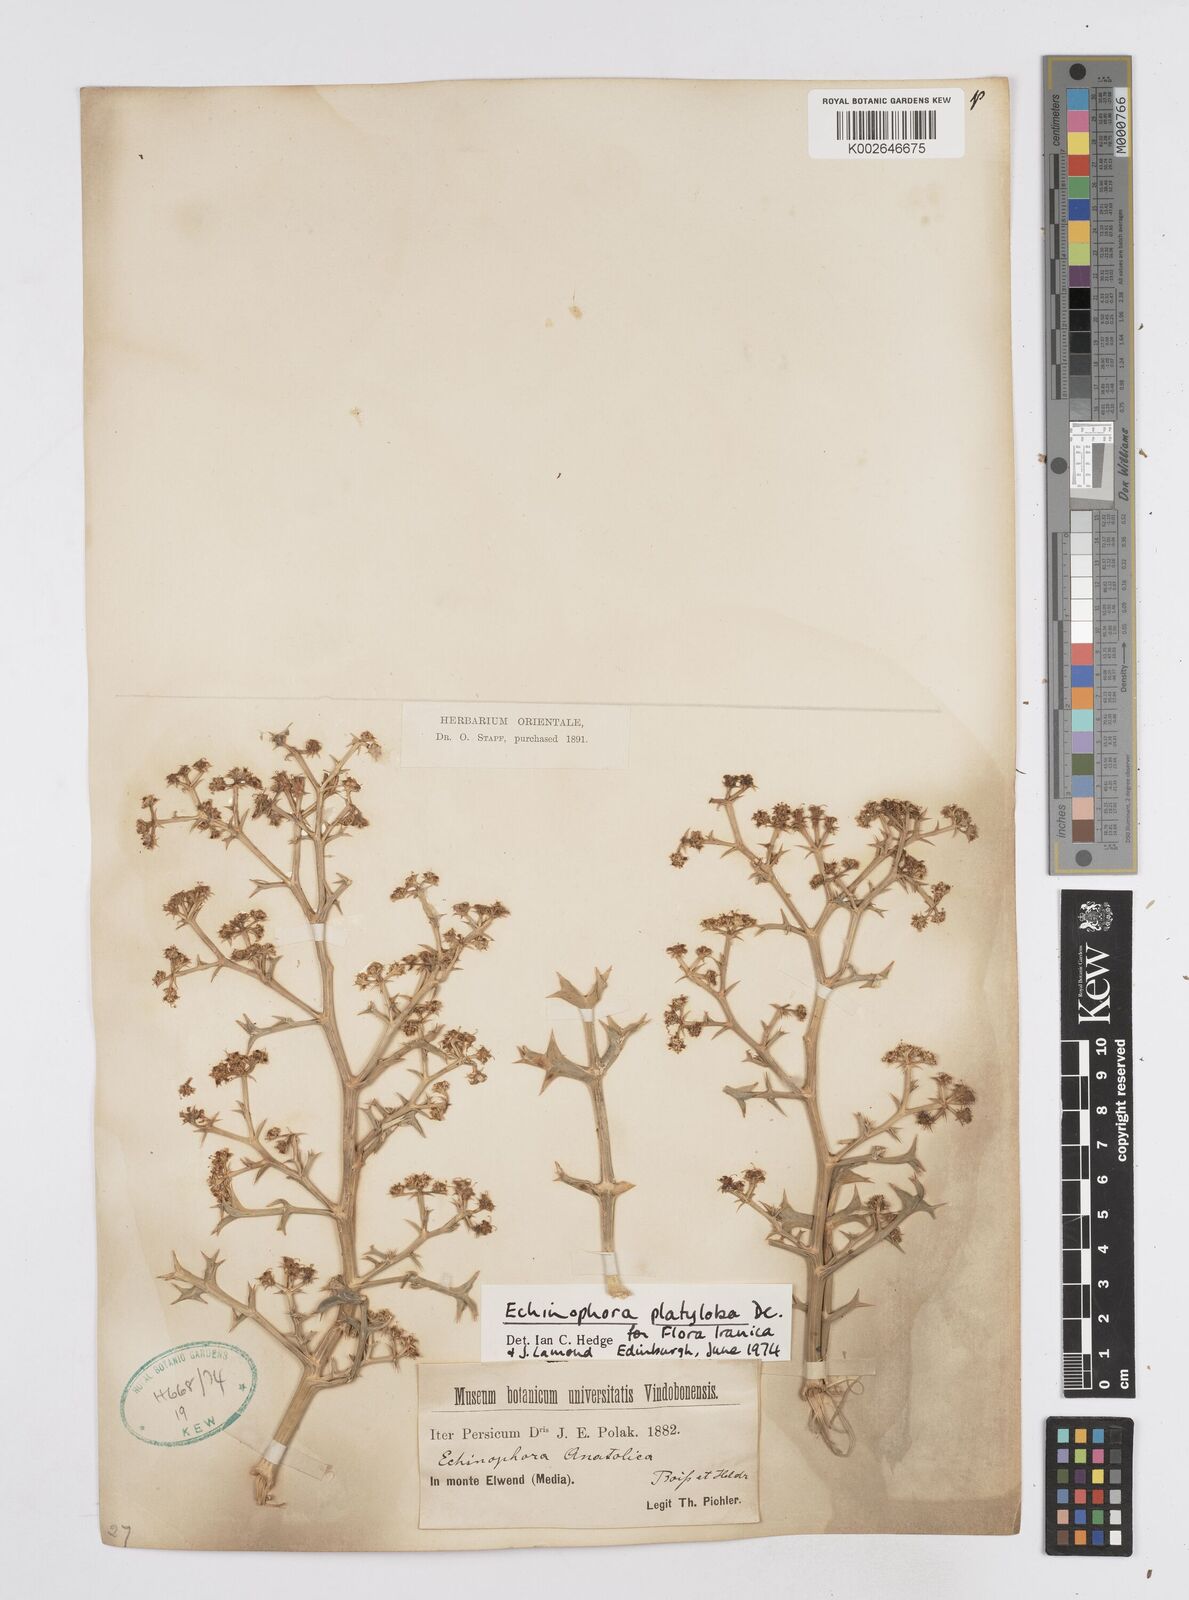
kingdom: Plantae
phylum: Tracheophyta
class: Magnoliopsida
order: Apiales
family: Apiaceae
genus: Echinophora
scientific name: Echinophora platyloba
